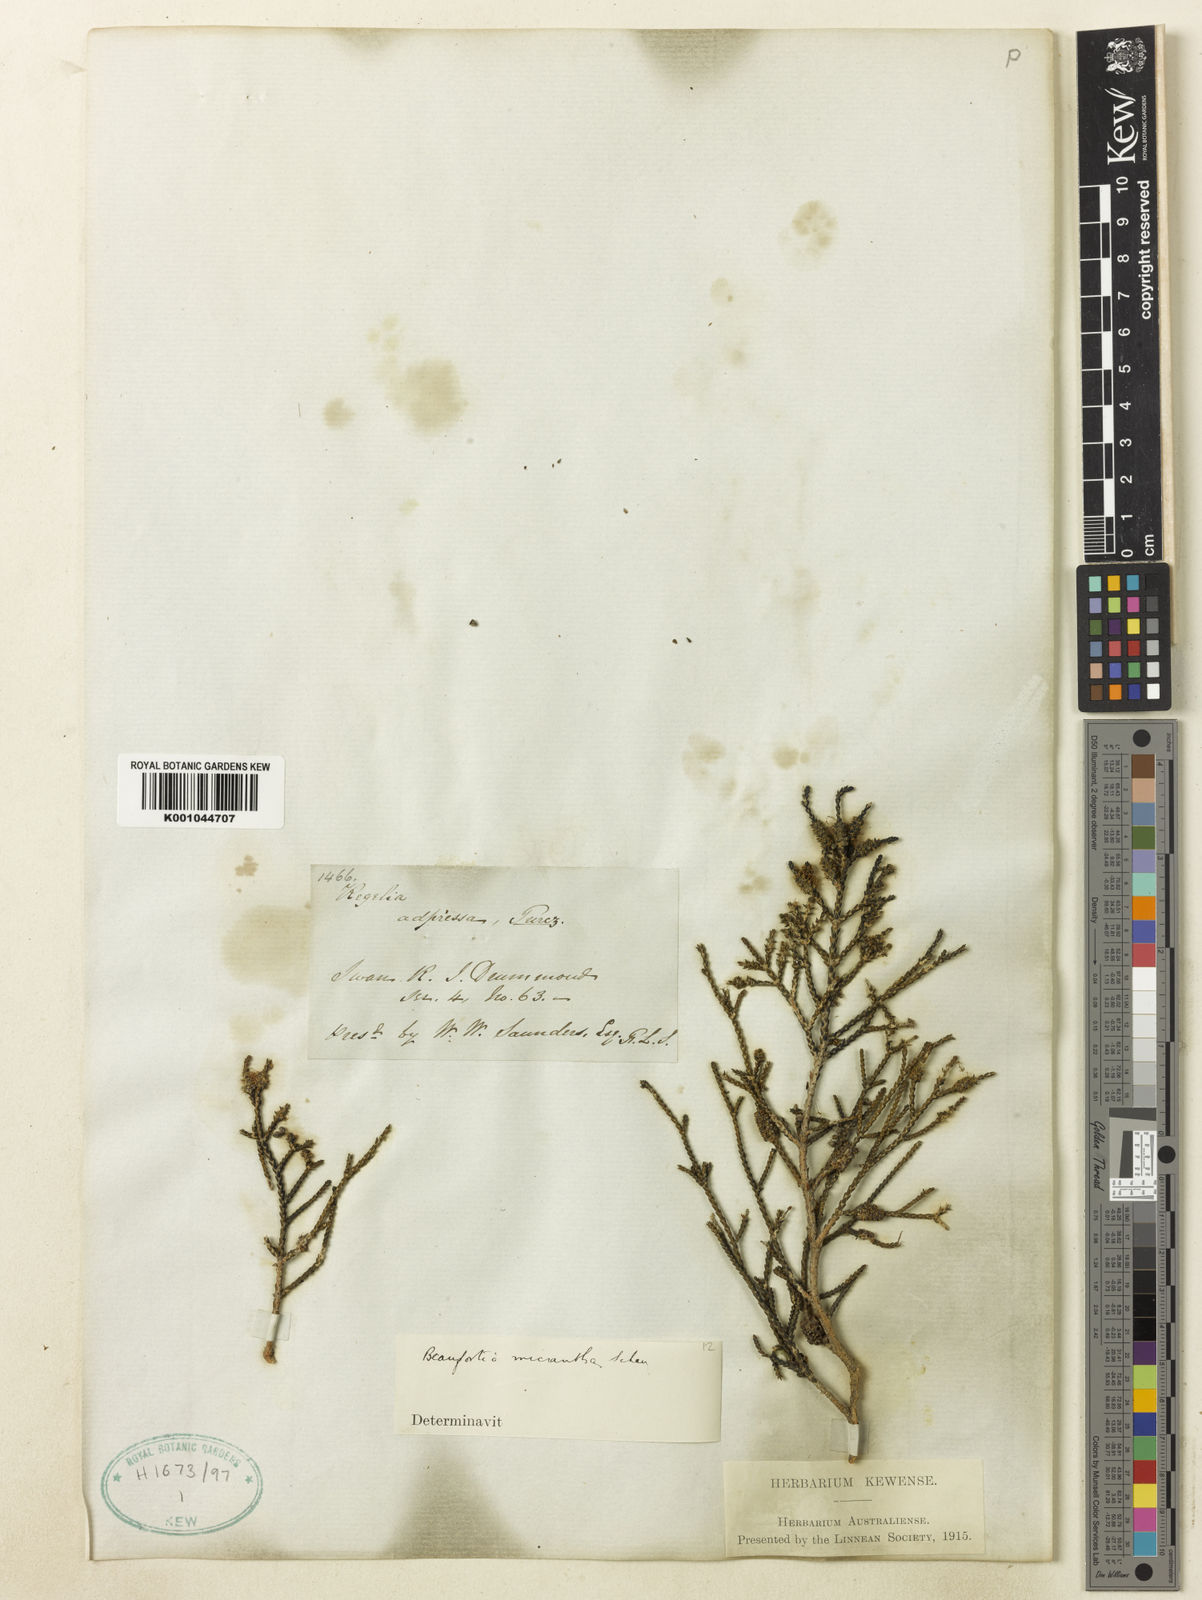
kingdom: Plantae
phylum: Tracheophyta
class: Magnoliopsida
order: Myrtales
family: Myrtaceae
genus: Melaleuca
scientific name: Melaleuca micrantha
